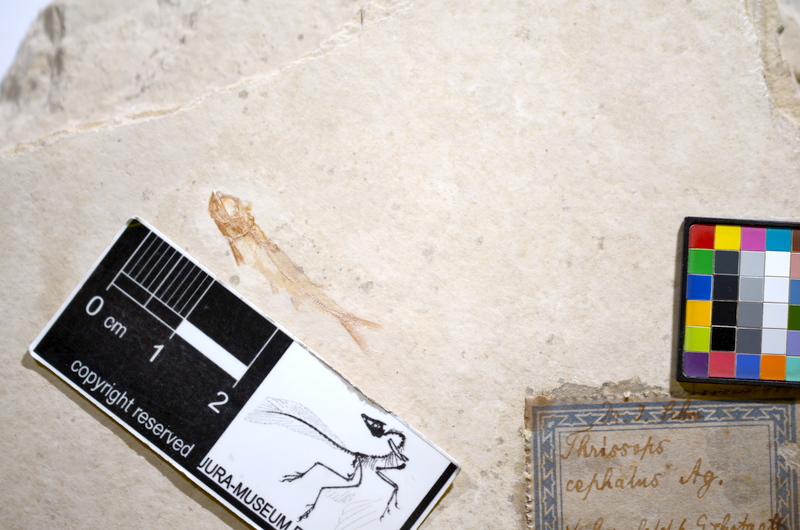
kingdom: Animalia
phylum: Chordata
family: Allothrissopidae
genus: Allothrissops
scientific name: Allothrissops
